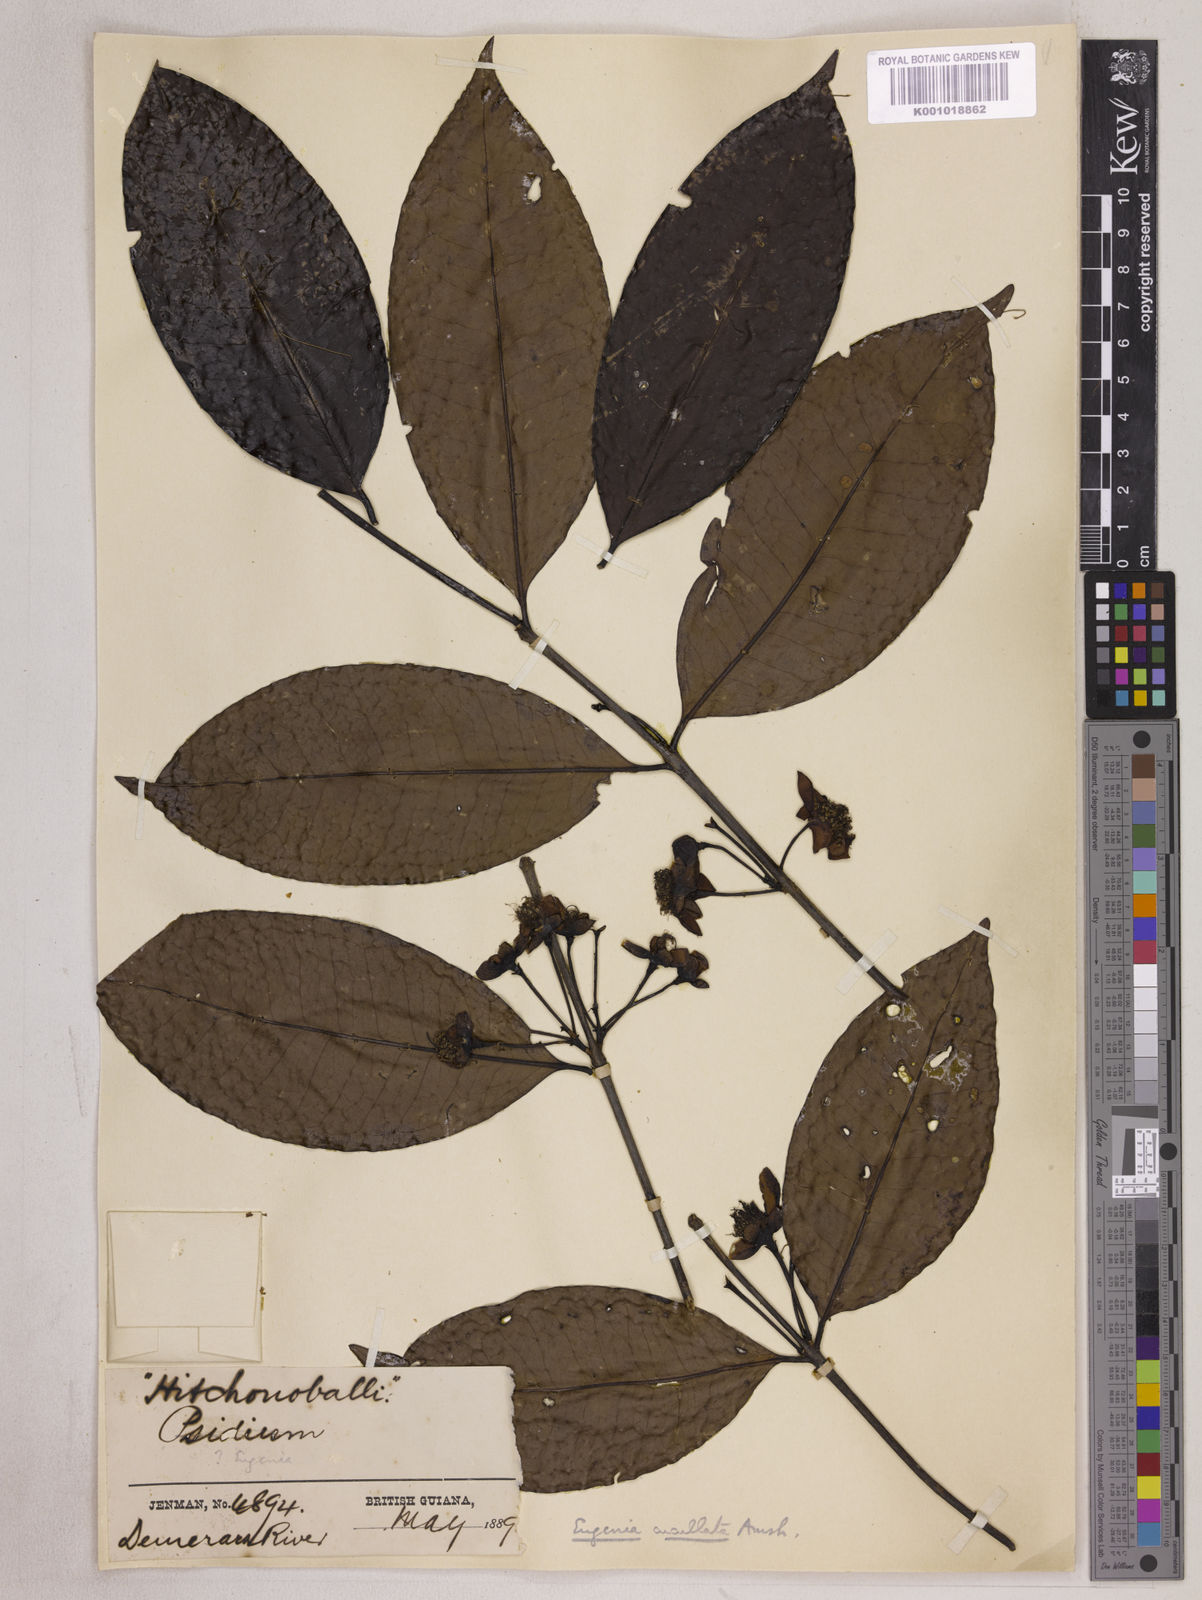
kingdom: Plantae
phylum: Tracheophyta
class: Magnoliopsida
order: Myrtales
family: Myrtaceae
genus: Eugenia
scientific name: Eugenia cucullata
